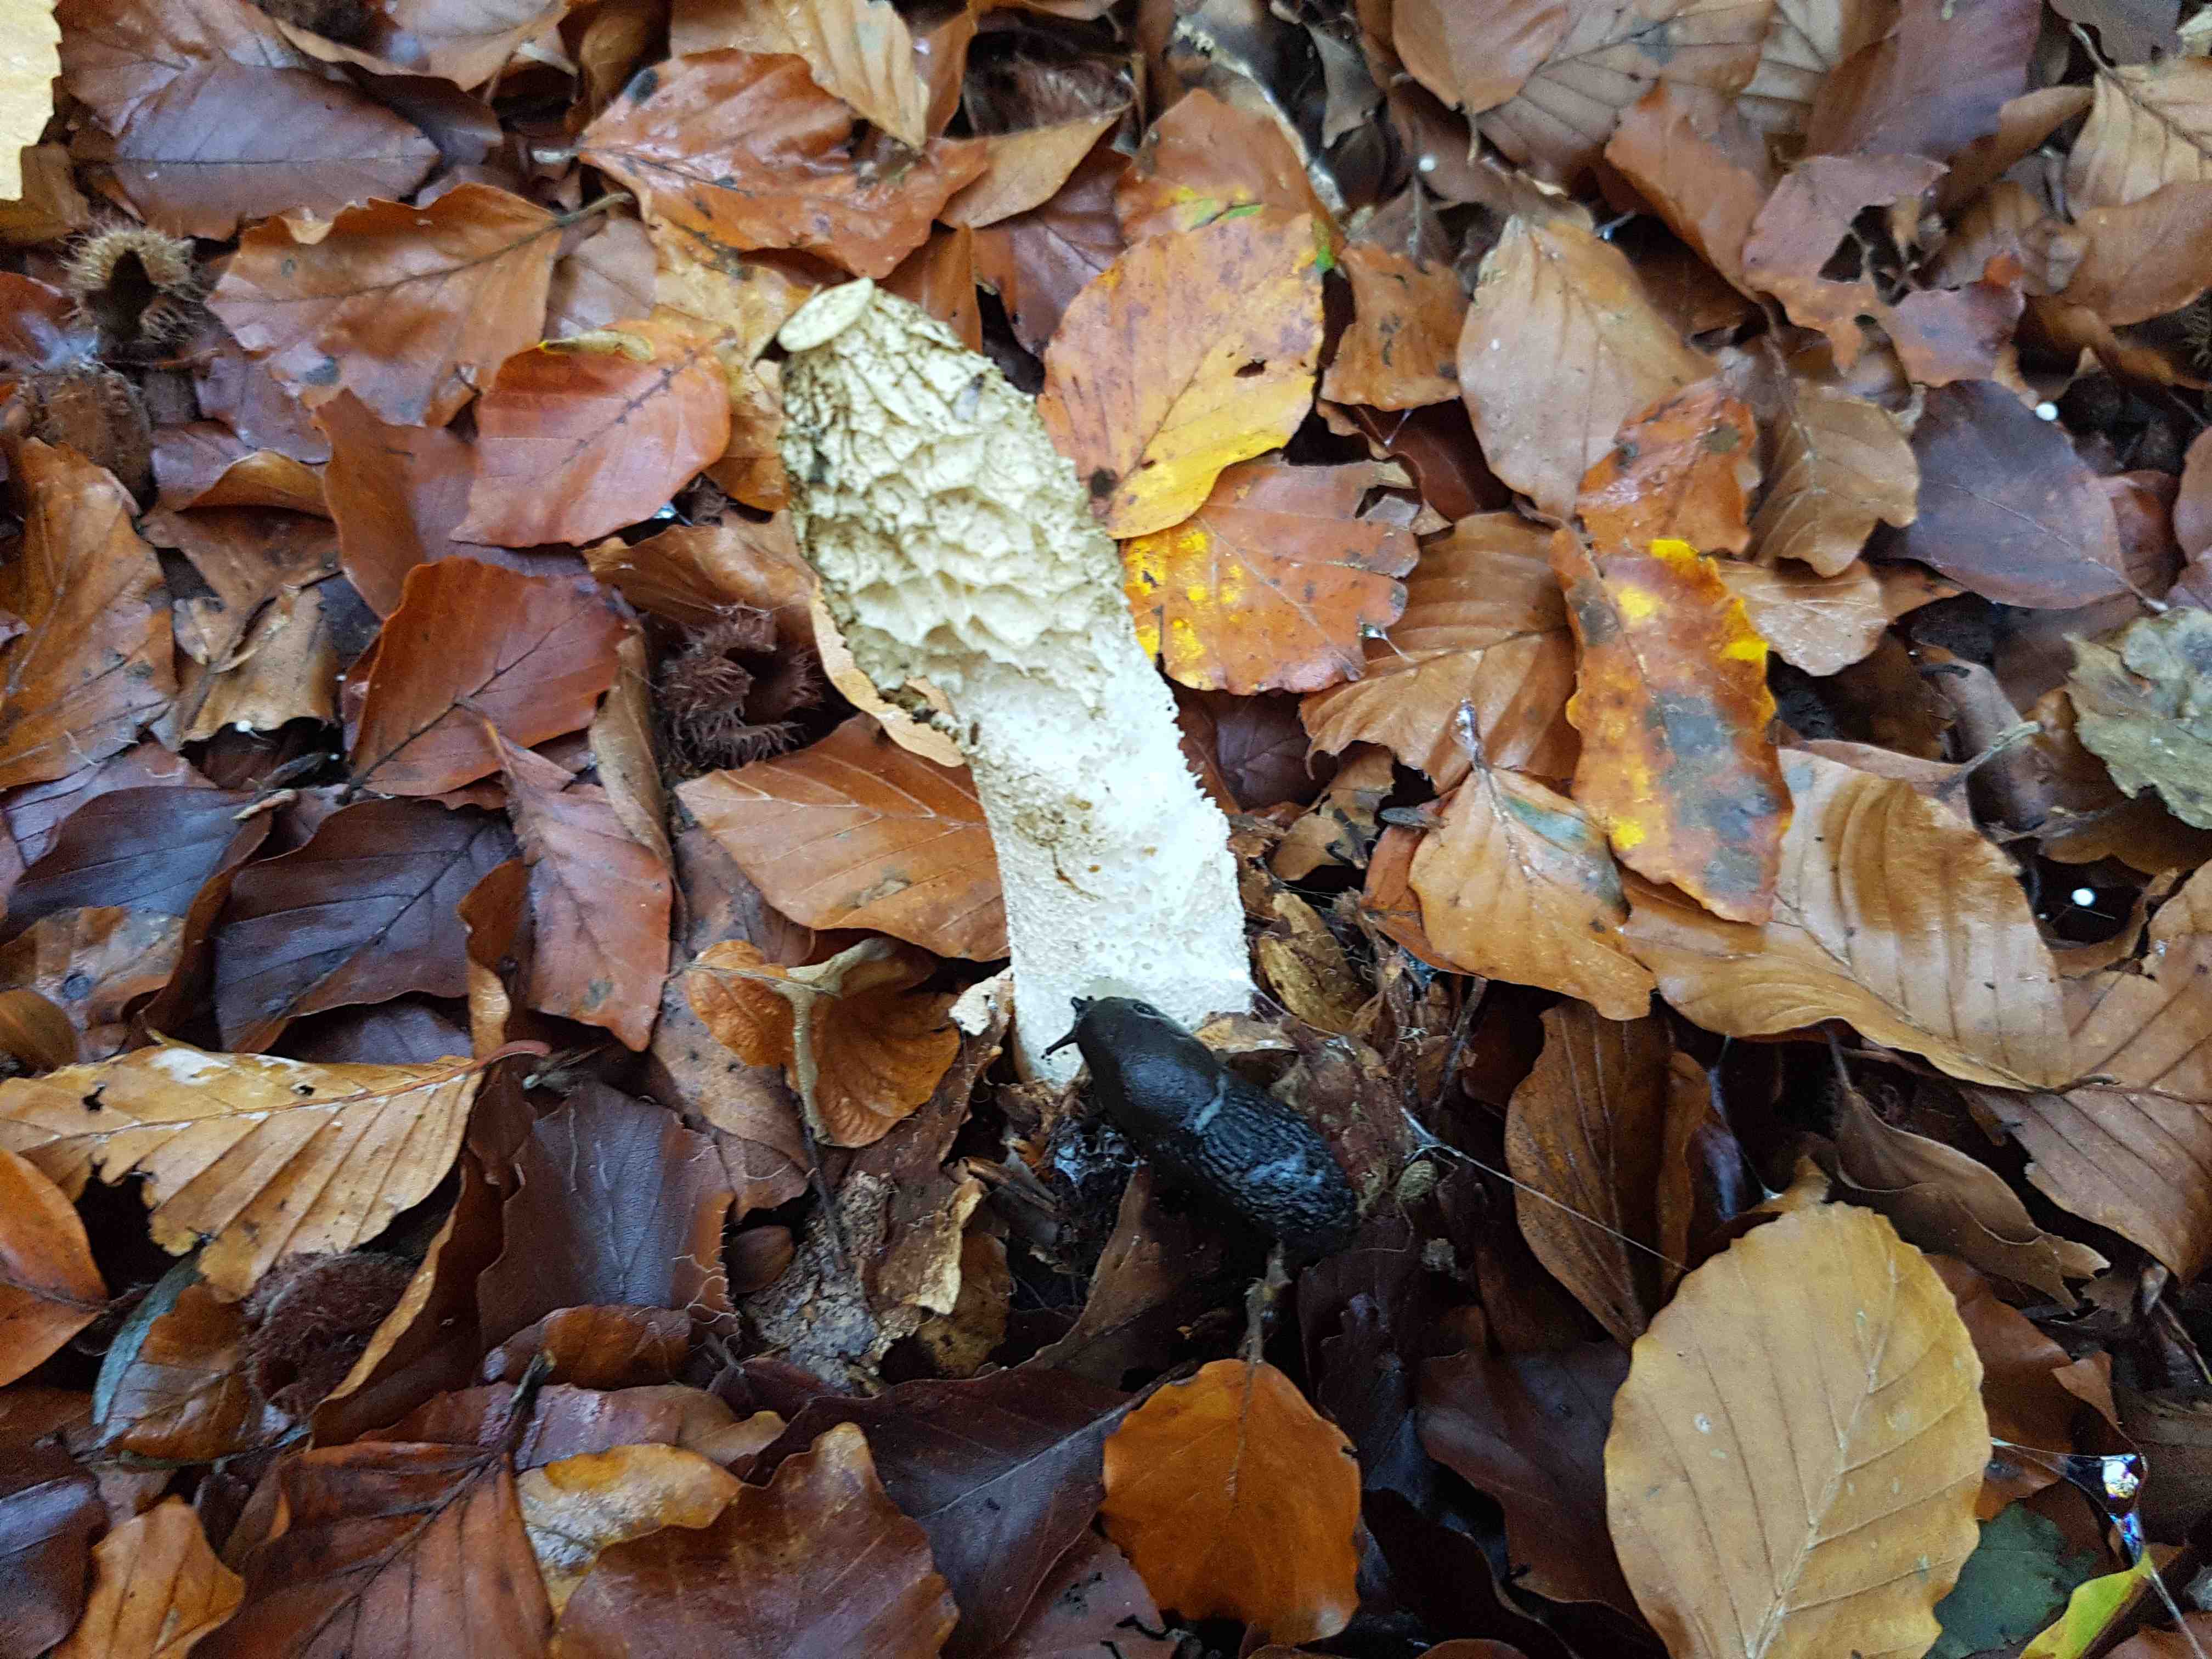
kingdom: Fungi
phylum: Basidiomycota
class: Agaricomycetes
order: Phallales
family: Phallaceae
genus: Phallus
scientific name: Phallus impudicus
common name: almindelig stinksvamp
